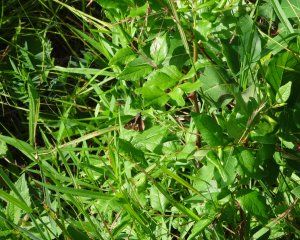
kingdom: Animalia
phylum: Arthropoda
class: Insecta
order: Lepidoptera
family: Hesperiidae
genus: Vernia
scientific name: Vernia verna
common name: Little Glassywing
